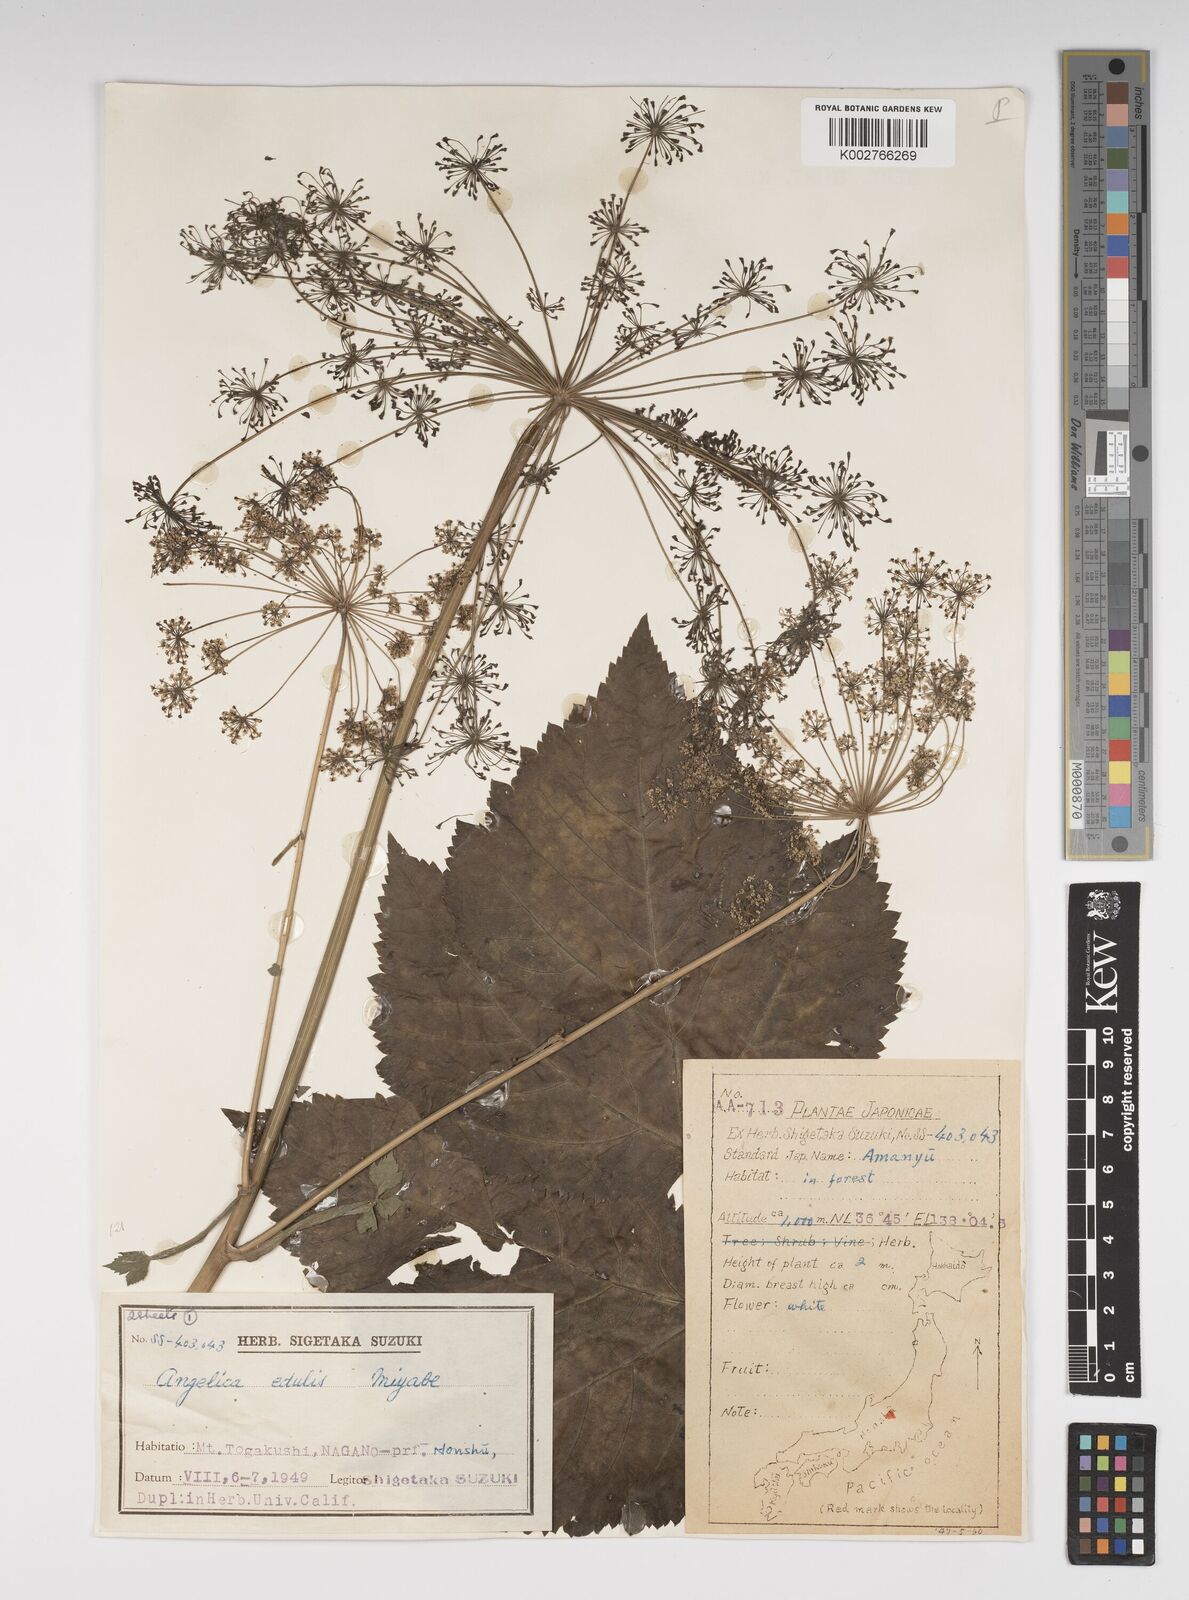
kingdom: Plantae
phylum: Tracheophyta
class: Magnoliopsida
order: Apiales
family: Apiaceae
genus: Angelica
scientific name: Angelica edulis
